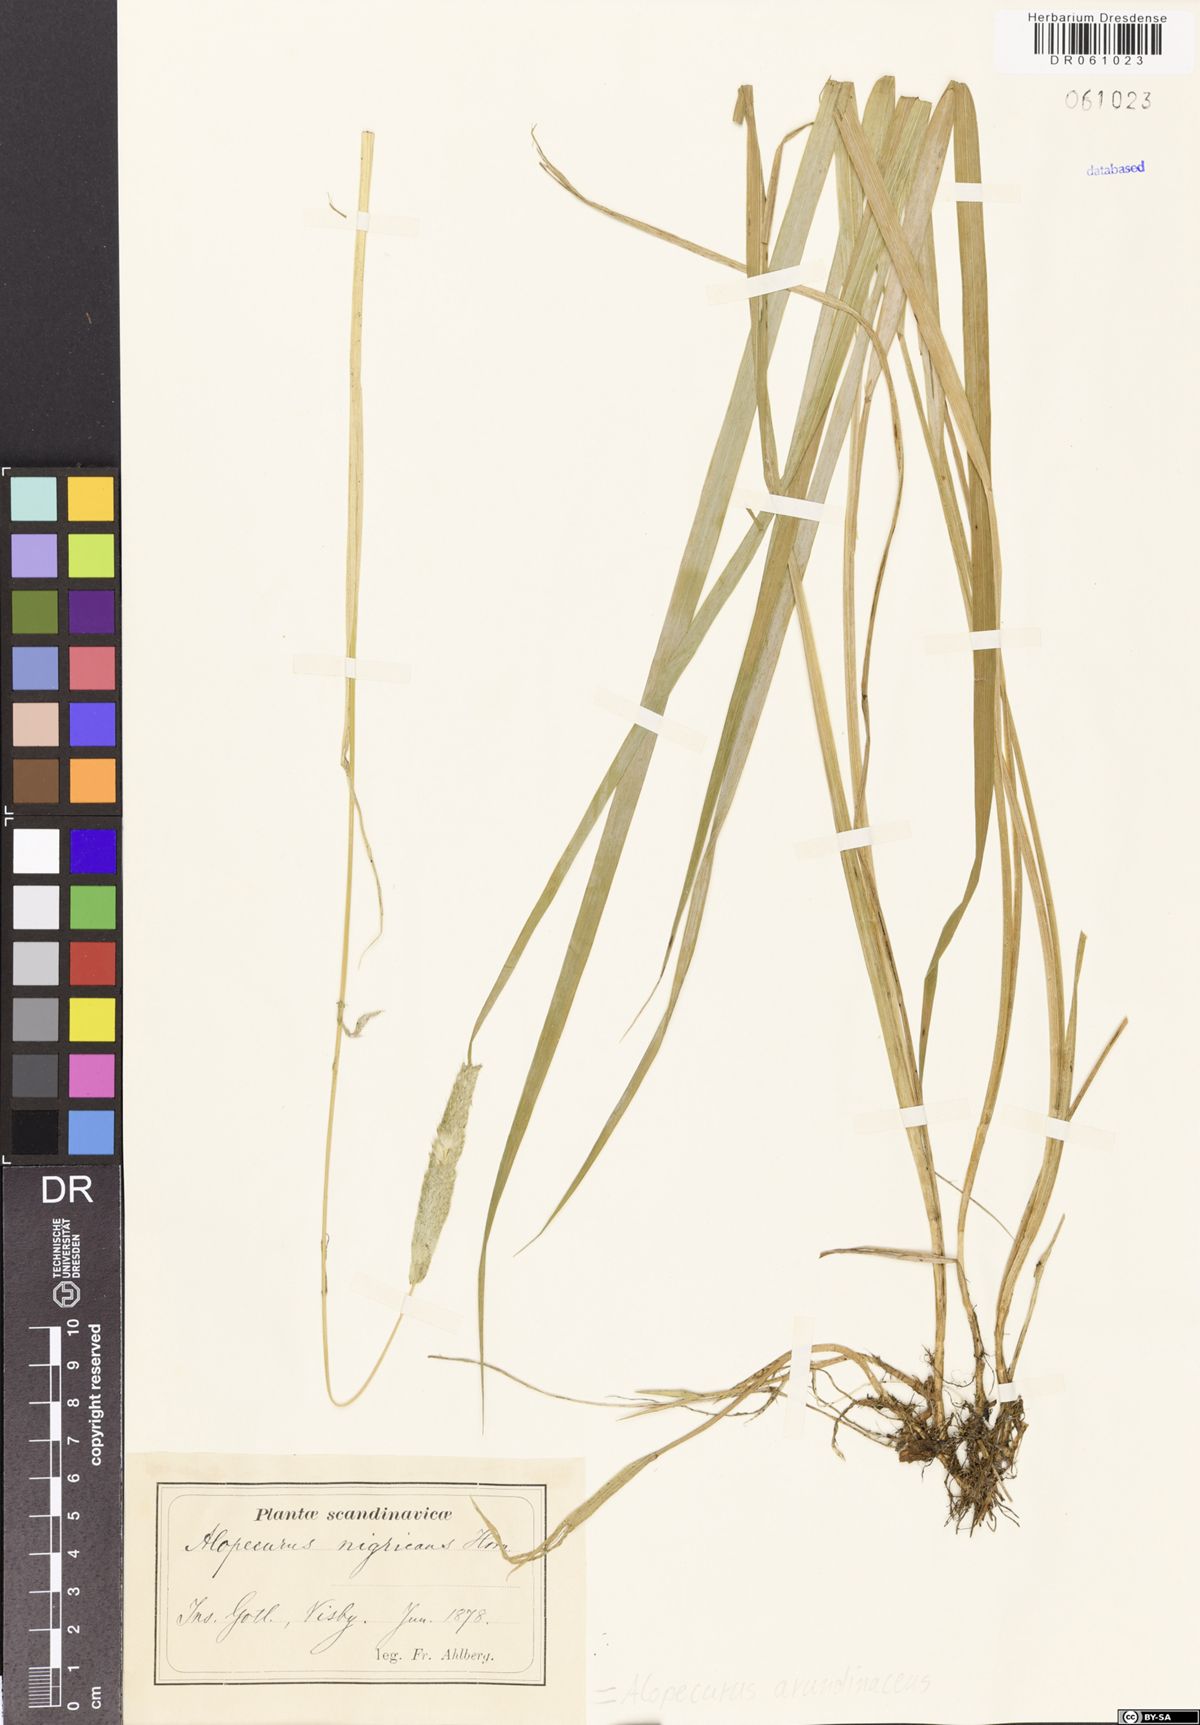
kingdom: Plantae
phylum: Tracheophyta
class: Liliopsida
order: Poales
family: Poaceae
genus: Alopecurus
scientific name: Alopecurus arundinaceus
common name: Creeping meadow foxtail
